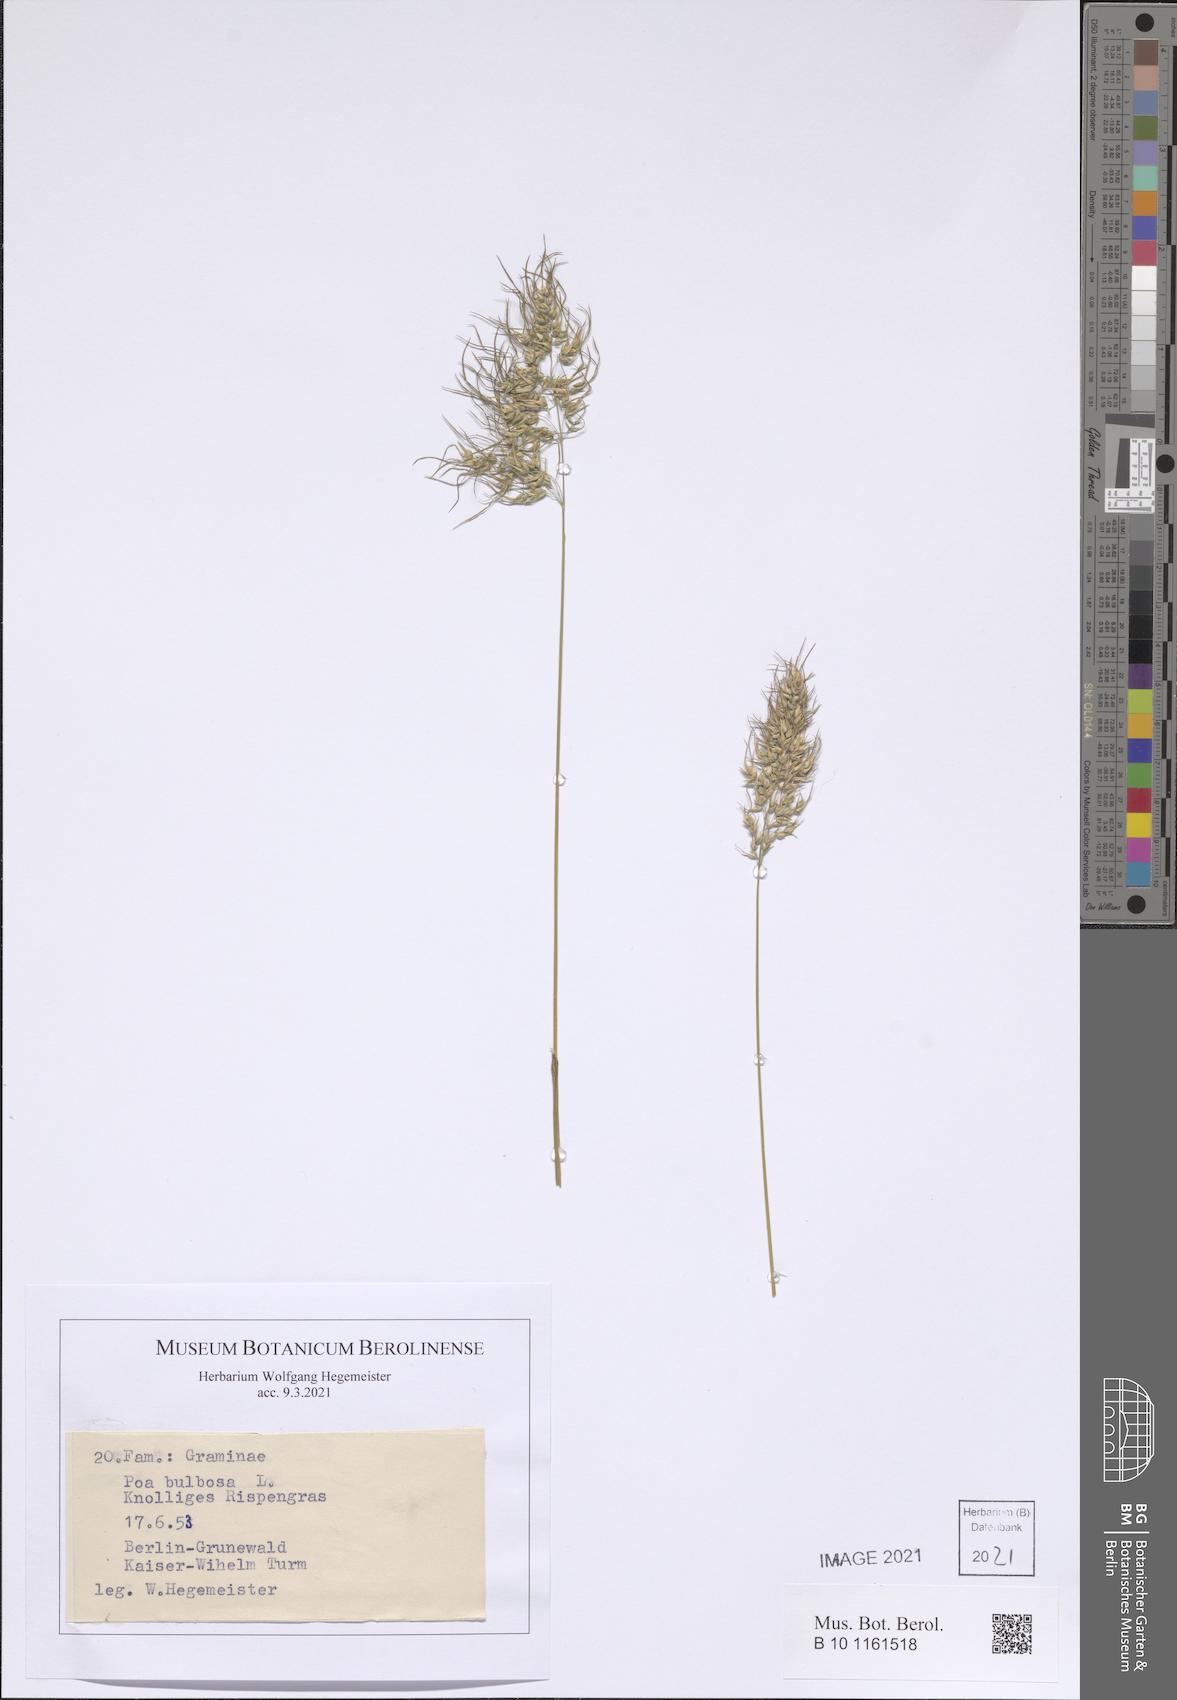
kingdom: Plantae
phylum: Tracheophyta
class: Liliopsida
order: Poales
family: Poaceae
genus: Poa
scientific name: Poa bulbosa
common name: Bulbous bluegrass
